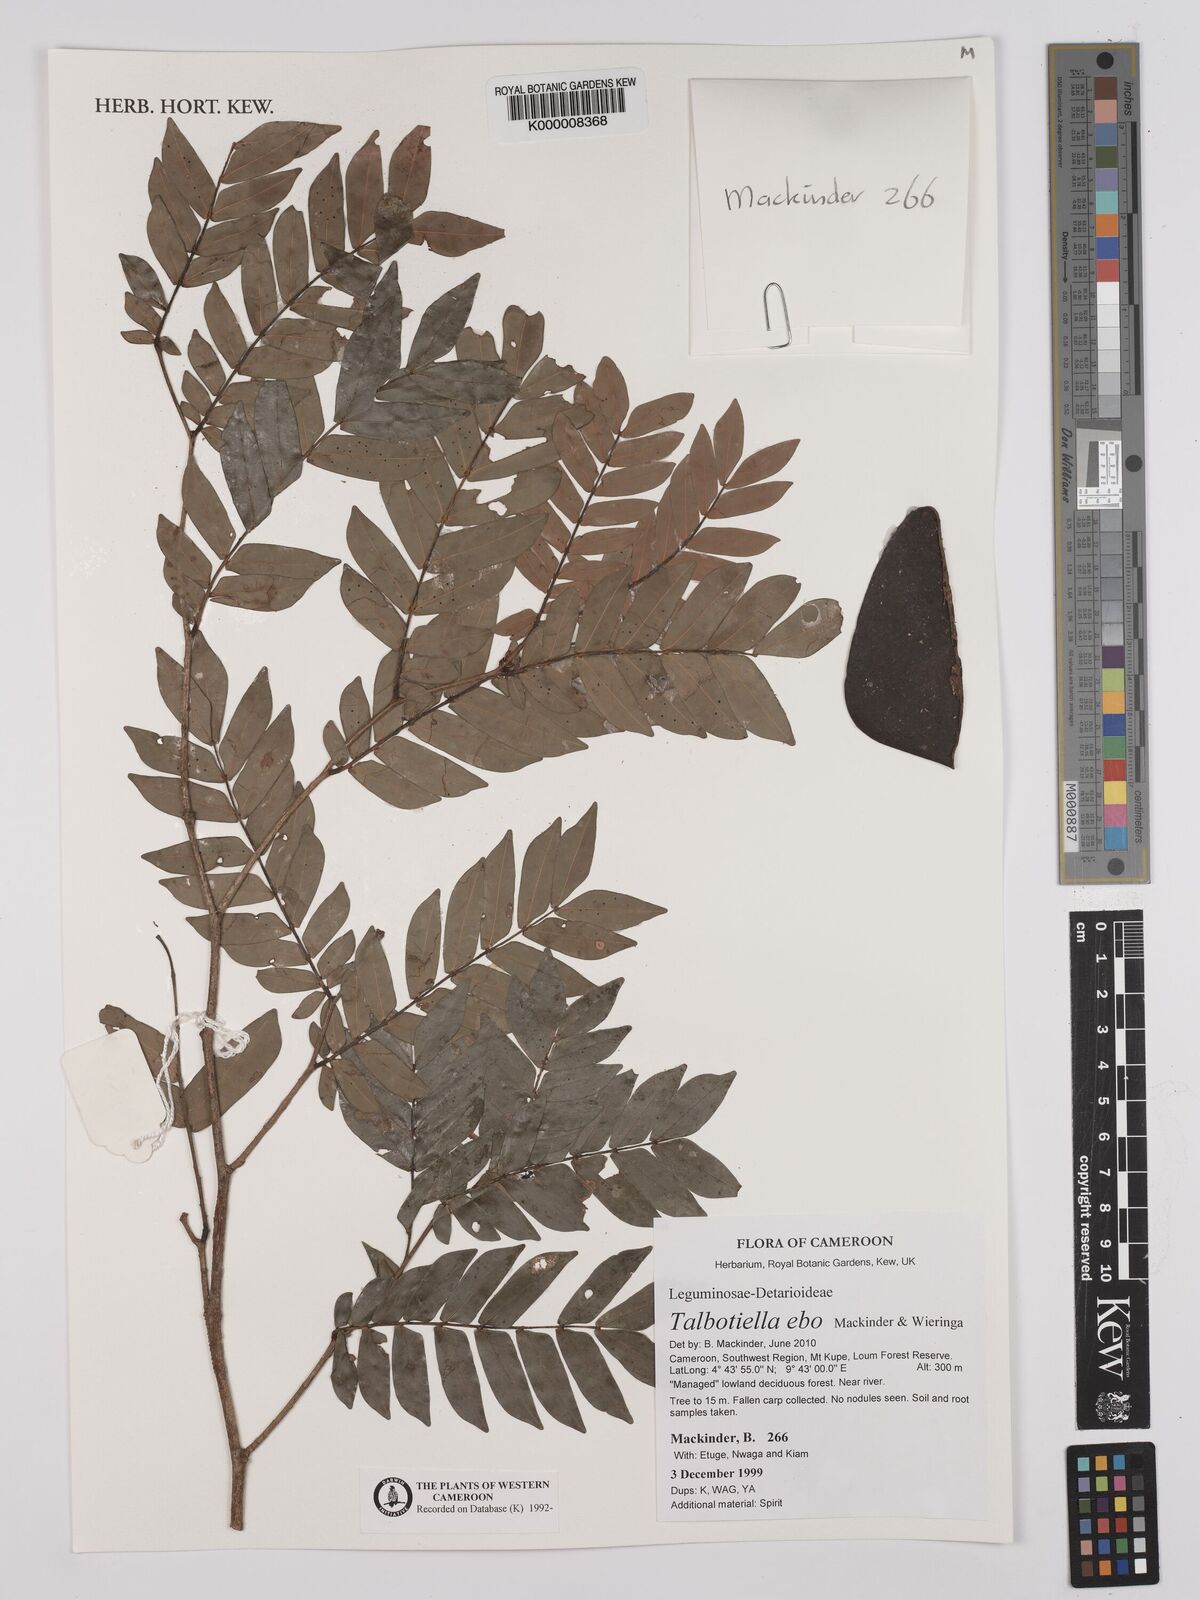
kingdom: Plantae
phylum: Tracheophyta
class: Magnoliopsida
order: Fabales
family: Fabaceae
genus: Talbotiella
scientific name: Talbotiella ebo
